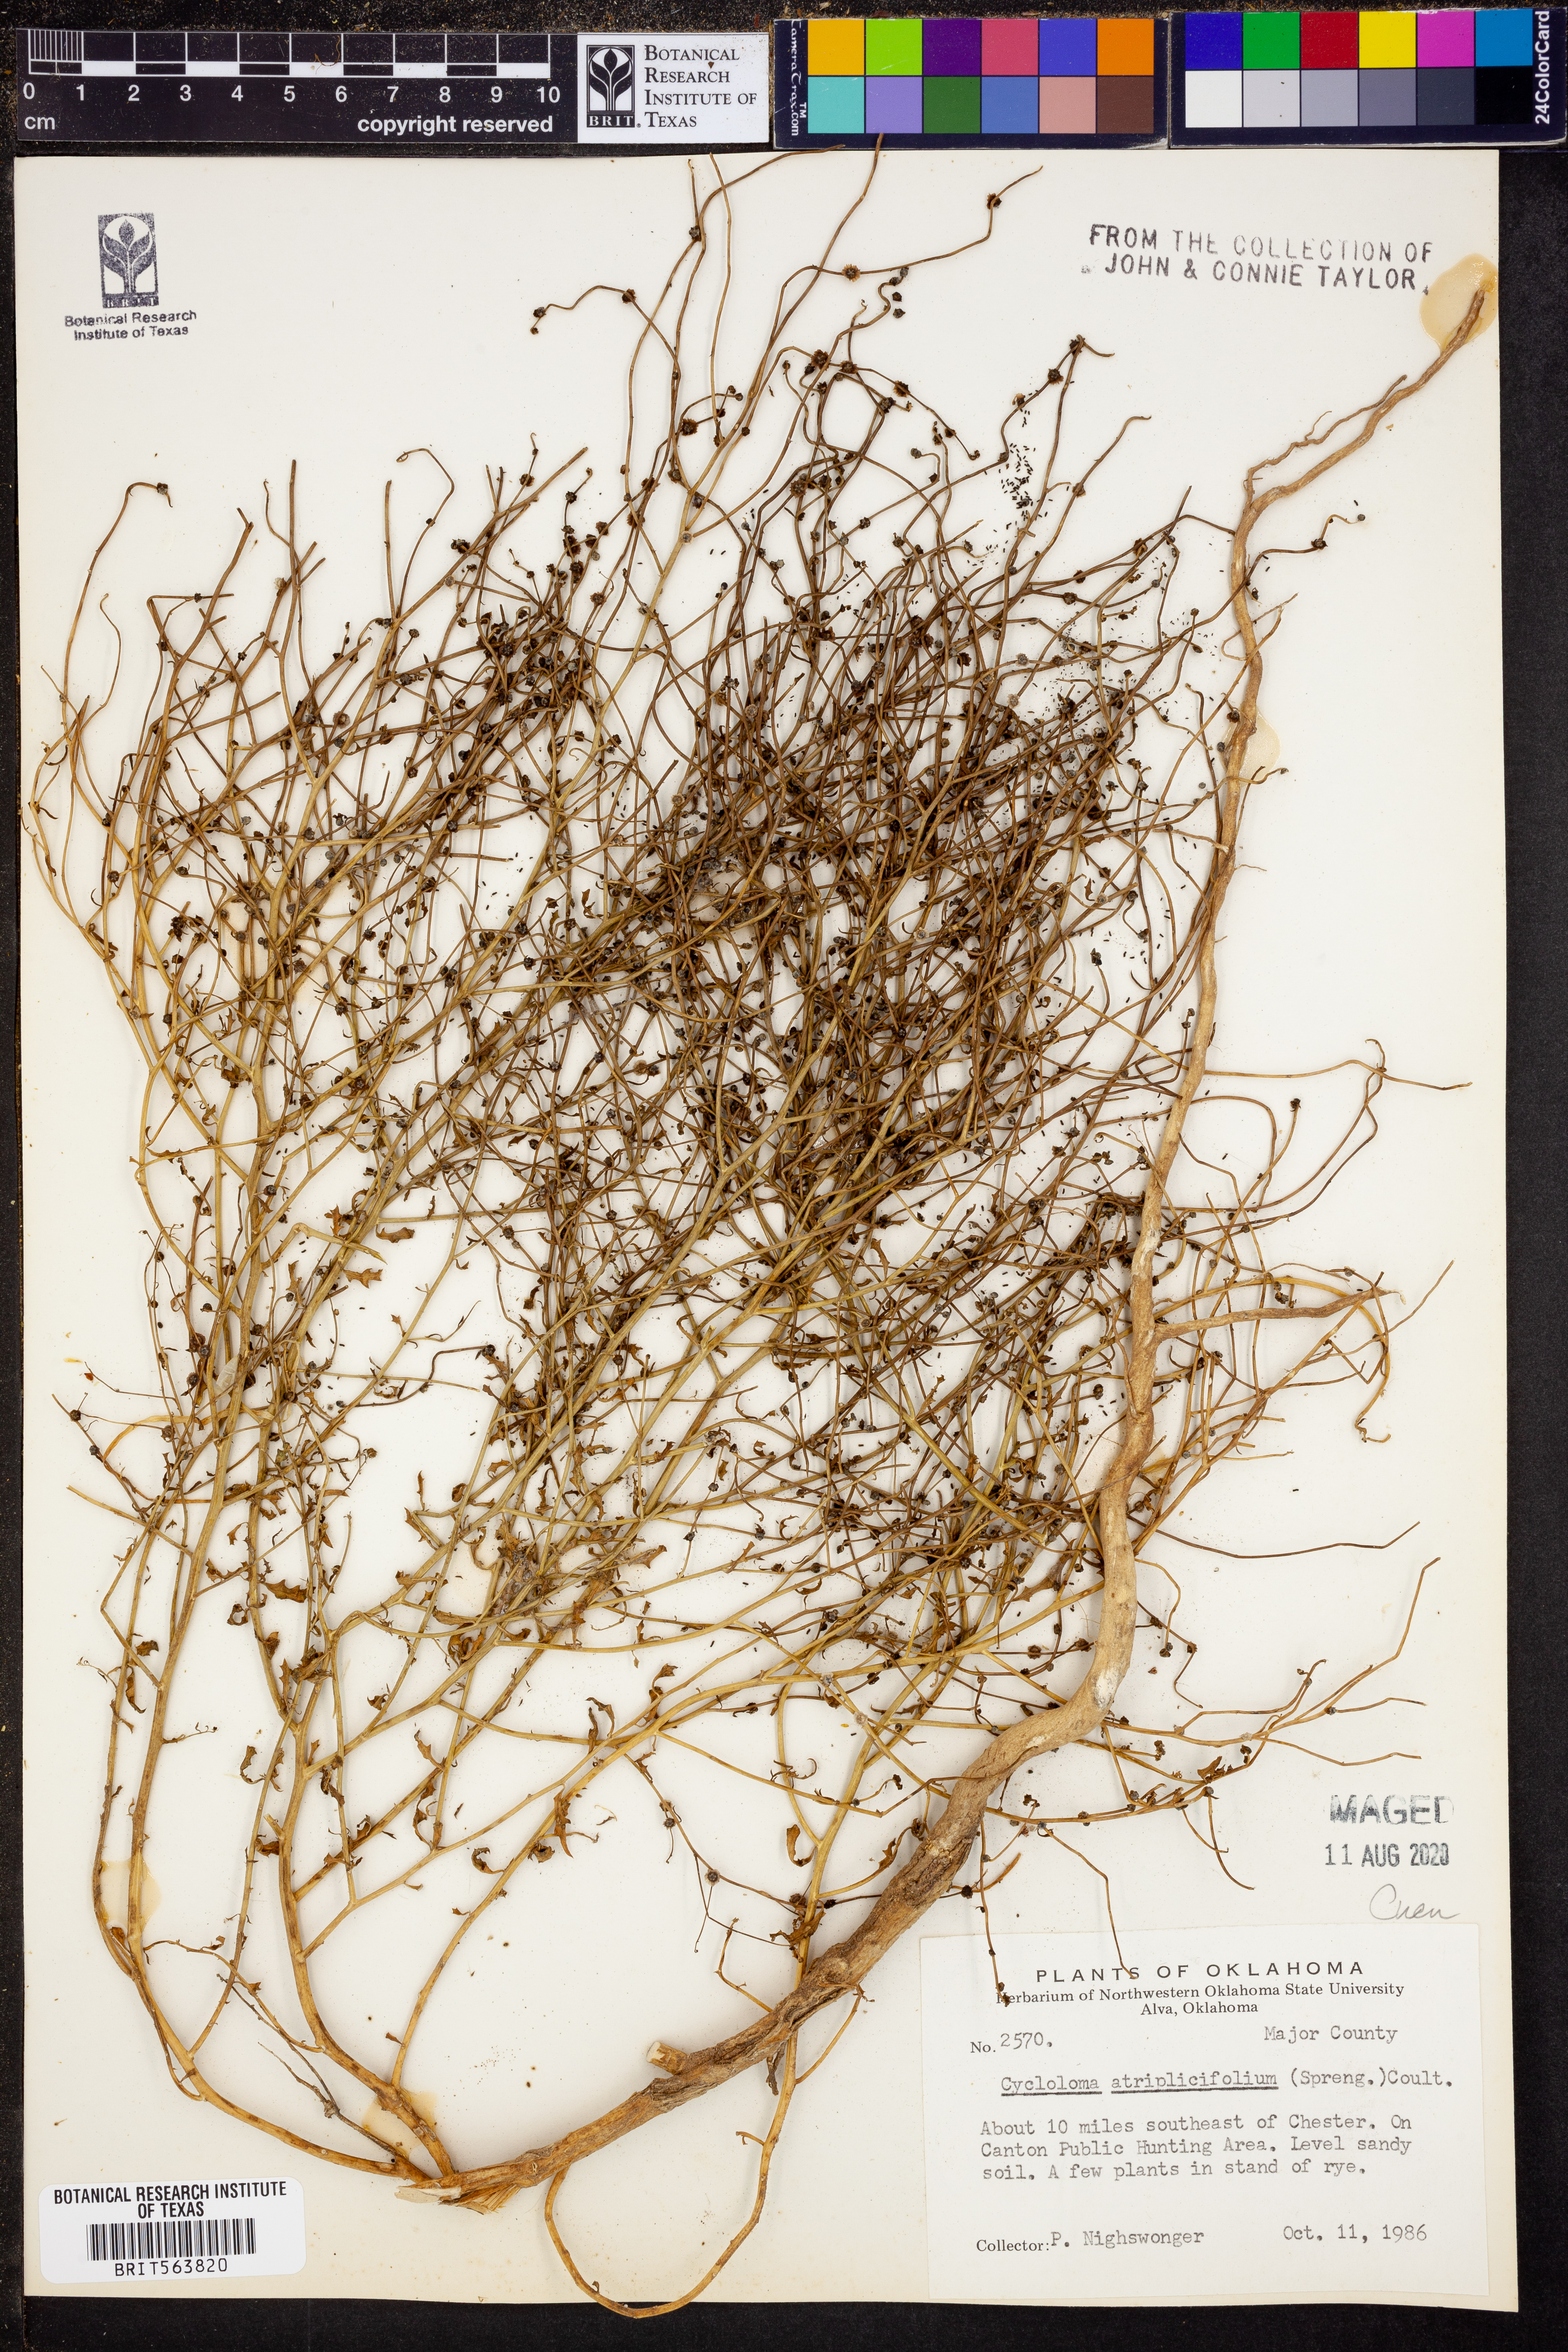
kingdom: Plantae
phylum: Tracheophyta
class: Magnoliopsida
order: Caryophyllales
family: Amaranthaceae
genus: Dysphania
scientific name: Dysphania atriplicifolia
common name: Plains tumbleweed
